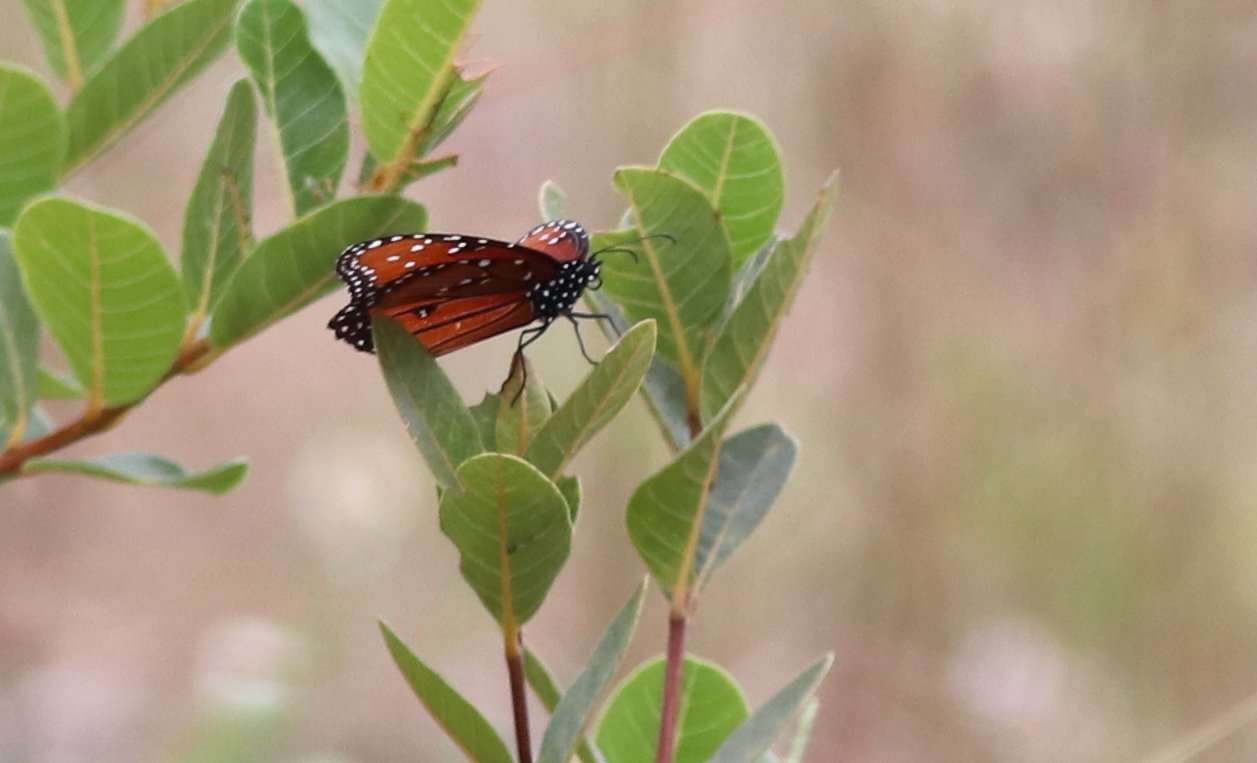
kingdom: Animalia
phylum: Arthropoda
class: Insecta
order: Lepidoptera
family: Nymphalidae
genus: Danaus
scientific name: Danaus gilippus
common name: Queen
